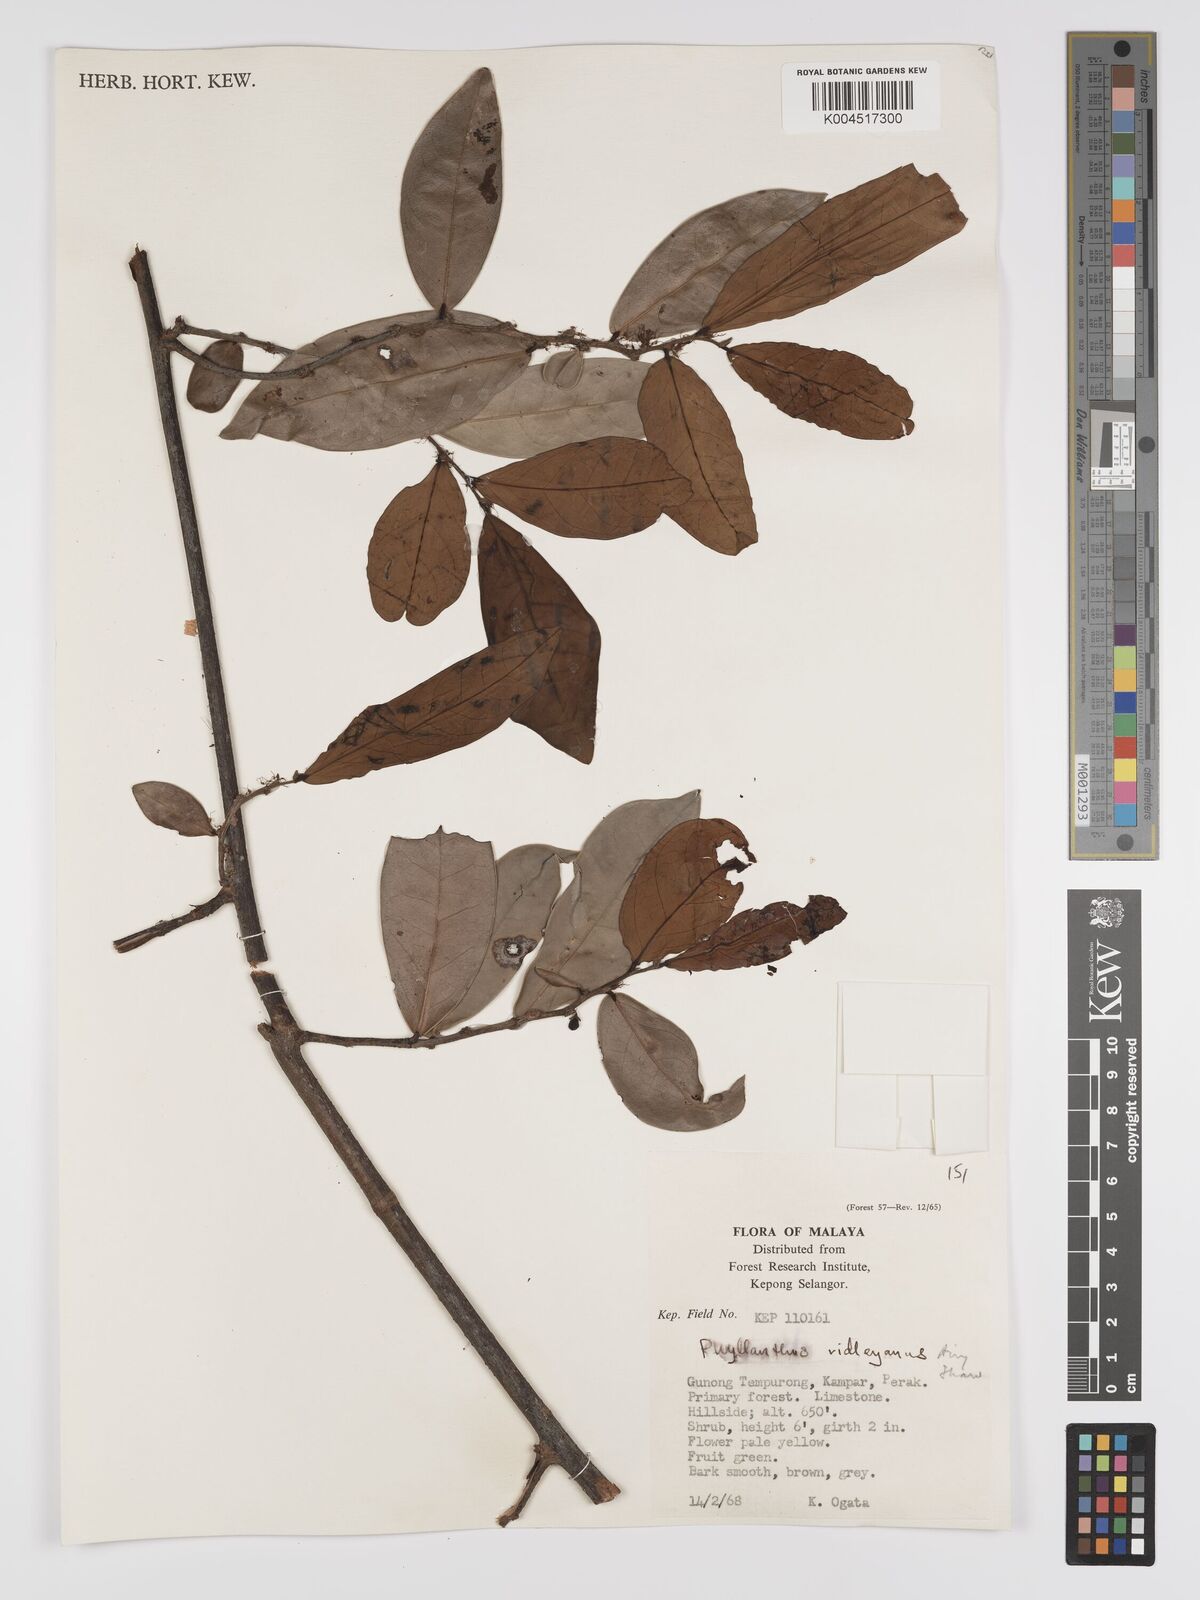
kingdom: Plantae
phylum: Tracheophyta
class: Magnoliopsida
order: Malpighiales
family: Phyllanthaceae
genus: Phyllanthus
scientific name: Phyllanthus ridleyanus
